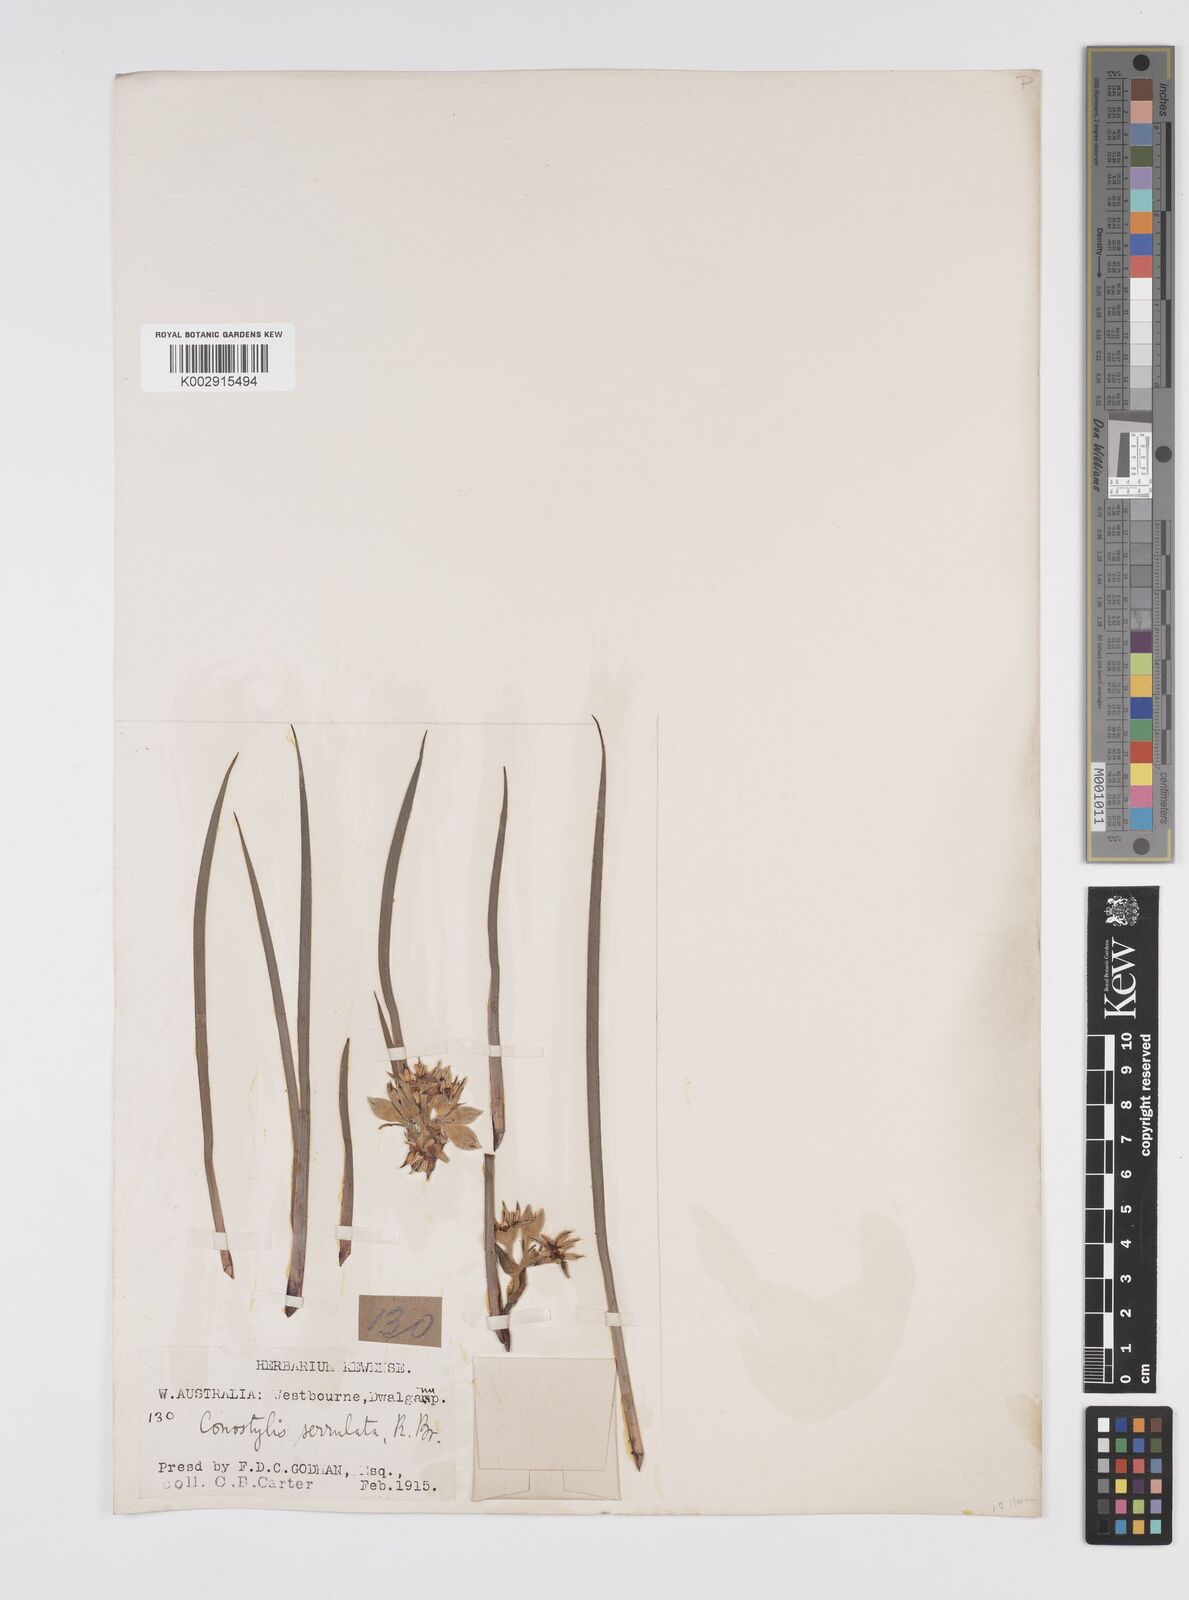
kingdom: Plantae
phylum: Tracheophyta
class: Liliopsida
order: Commelinales
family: Haemodoraceae
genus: Conostylis
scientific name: Conostylis serrulata
